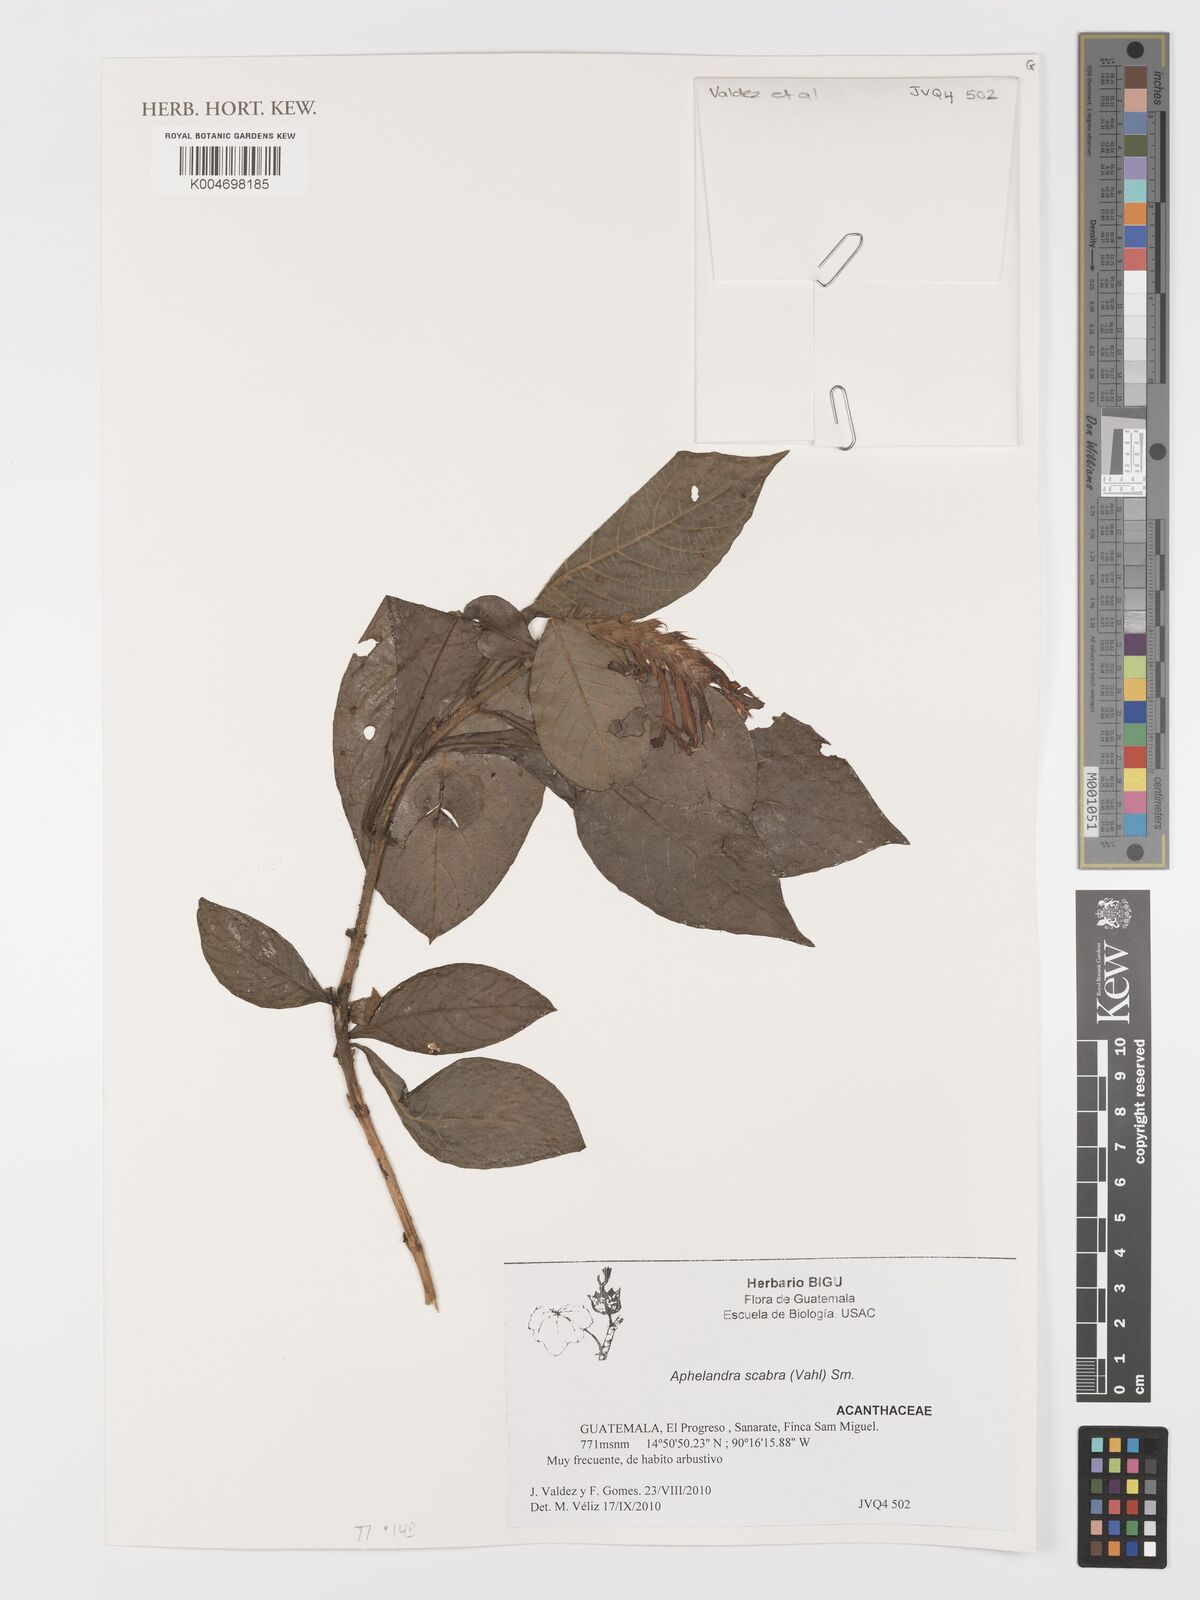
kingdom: Plantae
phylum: Tracheophyta
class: Magnoliopsida
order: Lamiales
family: Acanthaceae
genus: Aphelandra
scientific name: Aphelandra scabra
